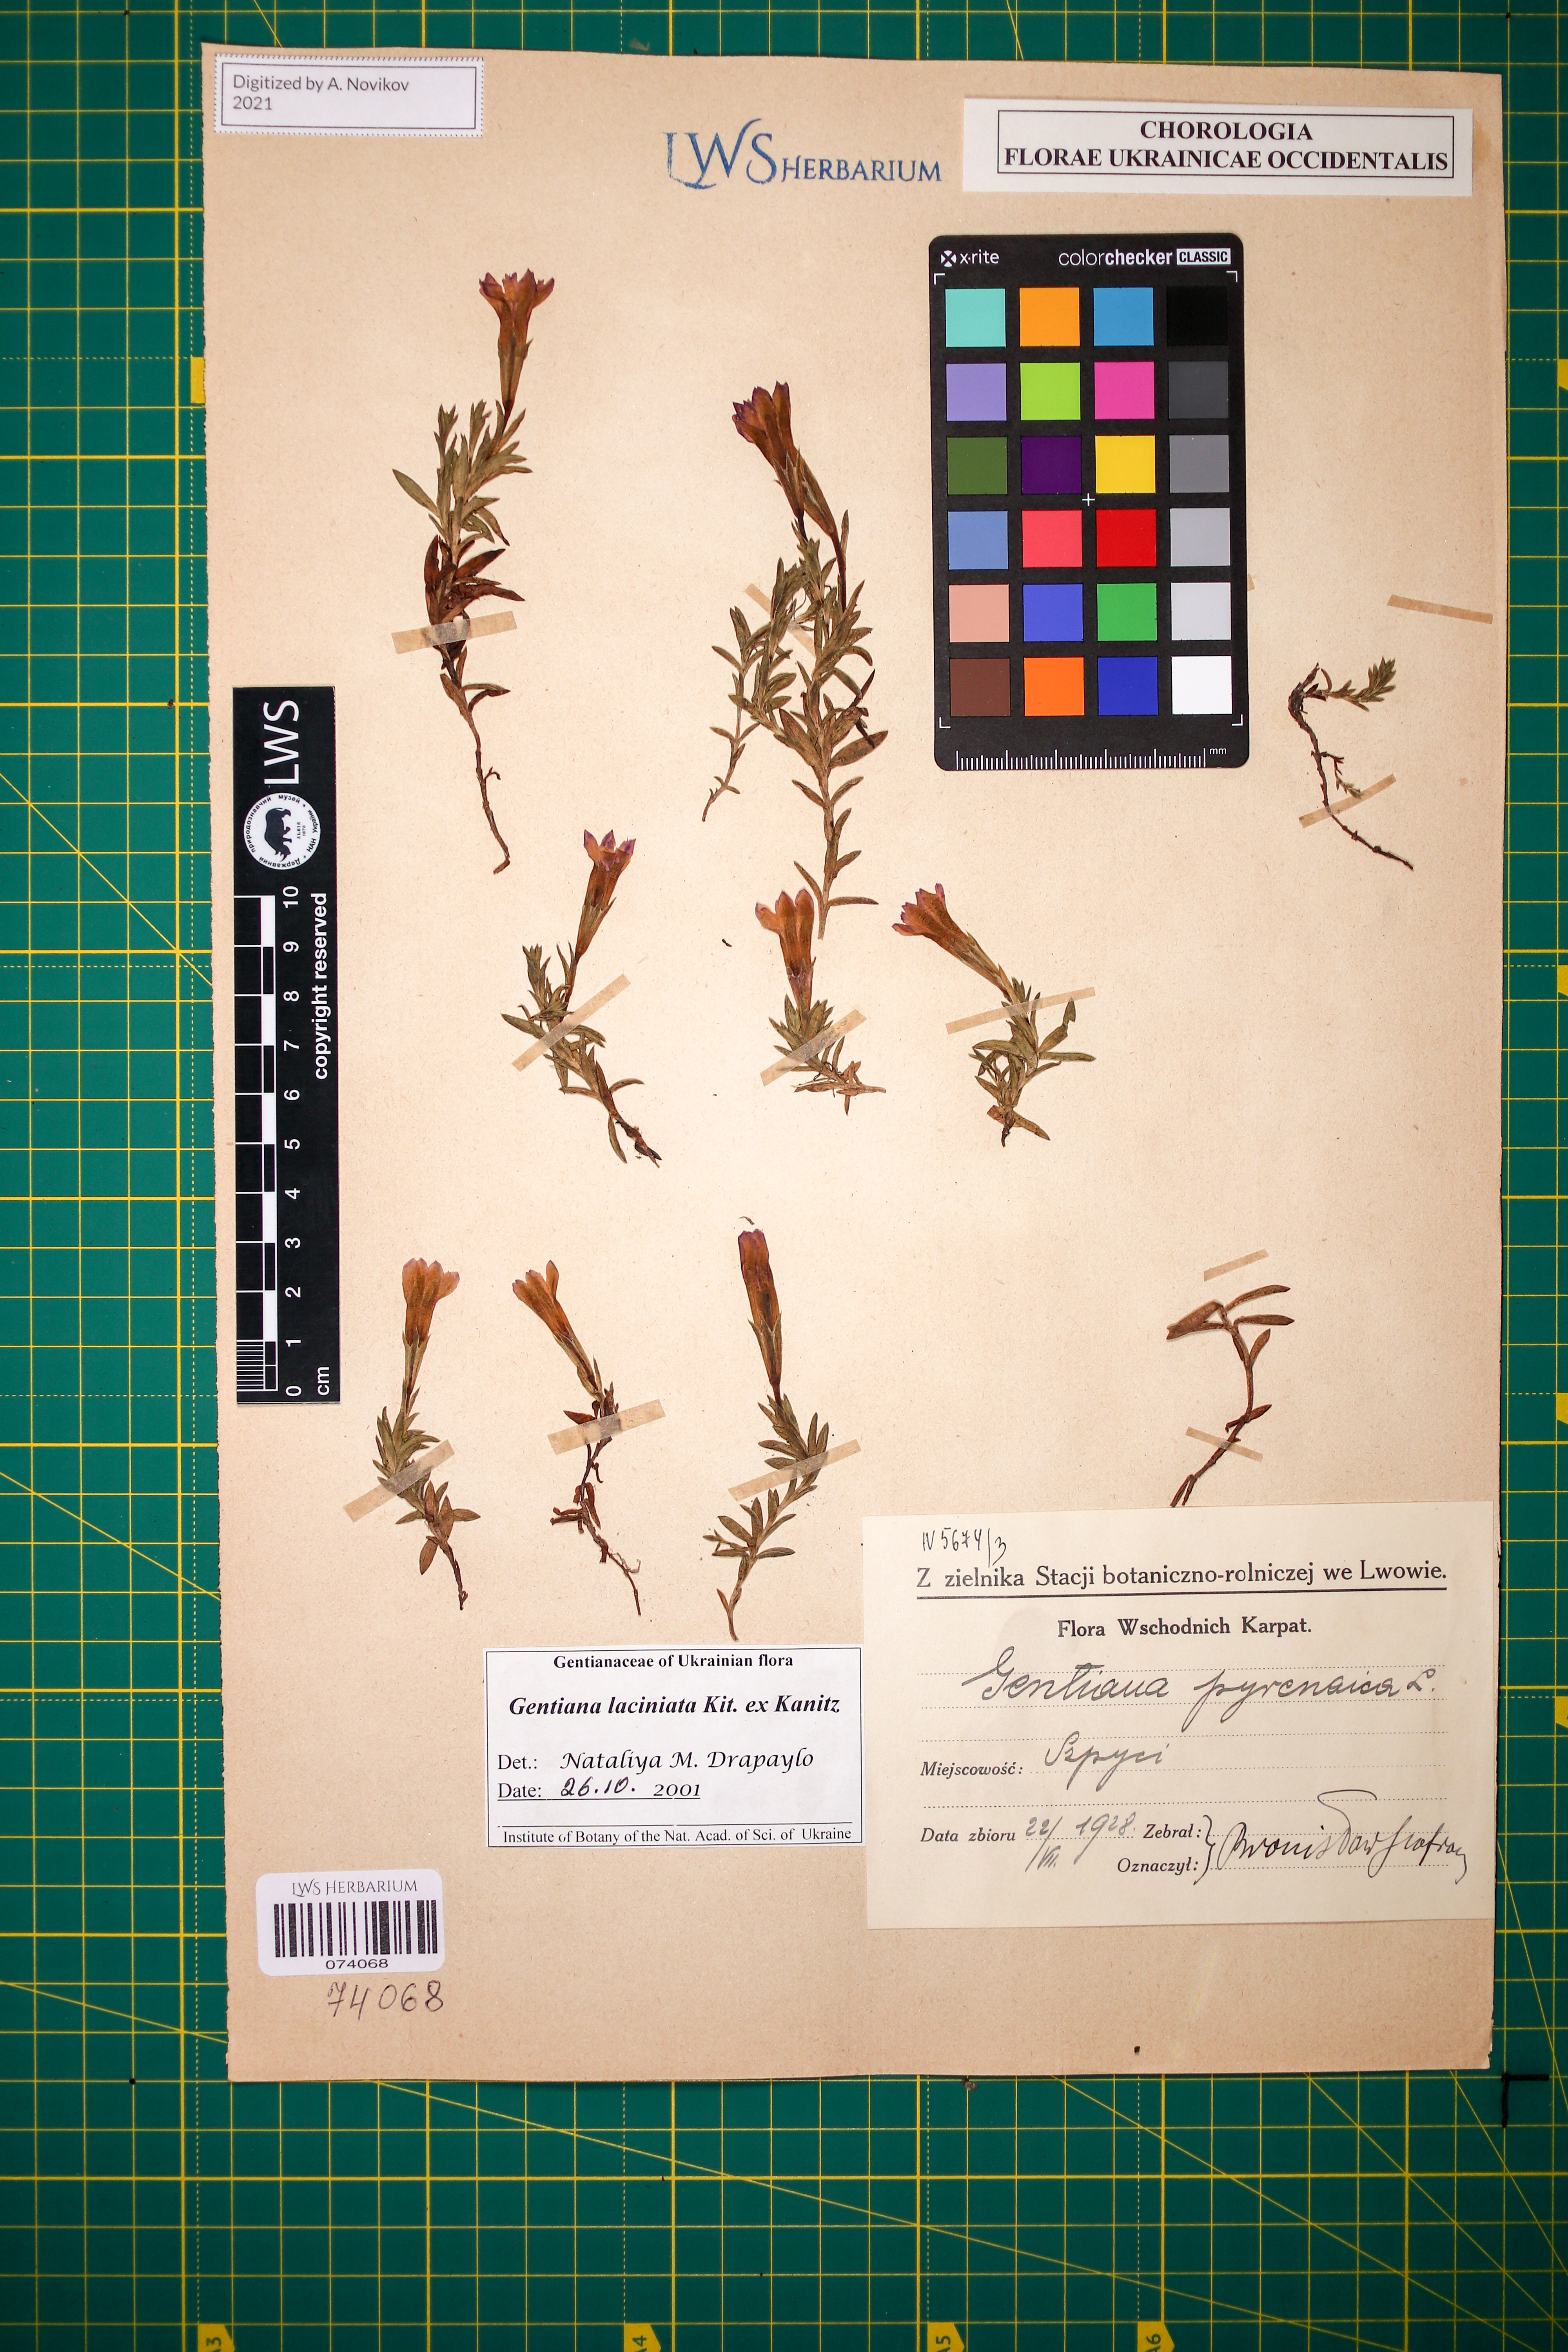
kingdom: Plantae
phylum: Tracheophyta
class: Magnoliopsida
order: Gentianales
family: Gentianaceae
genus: Gentiana
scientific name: Gentiana laciniata
